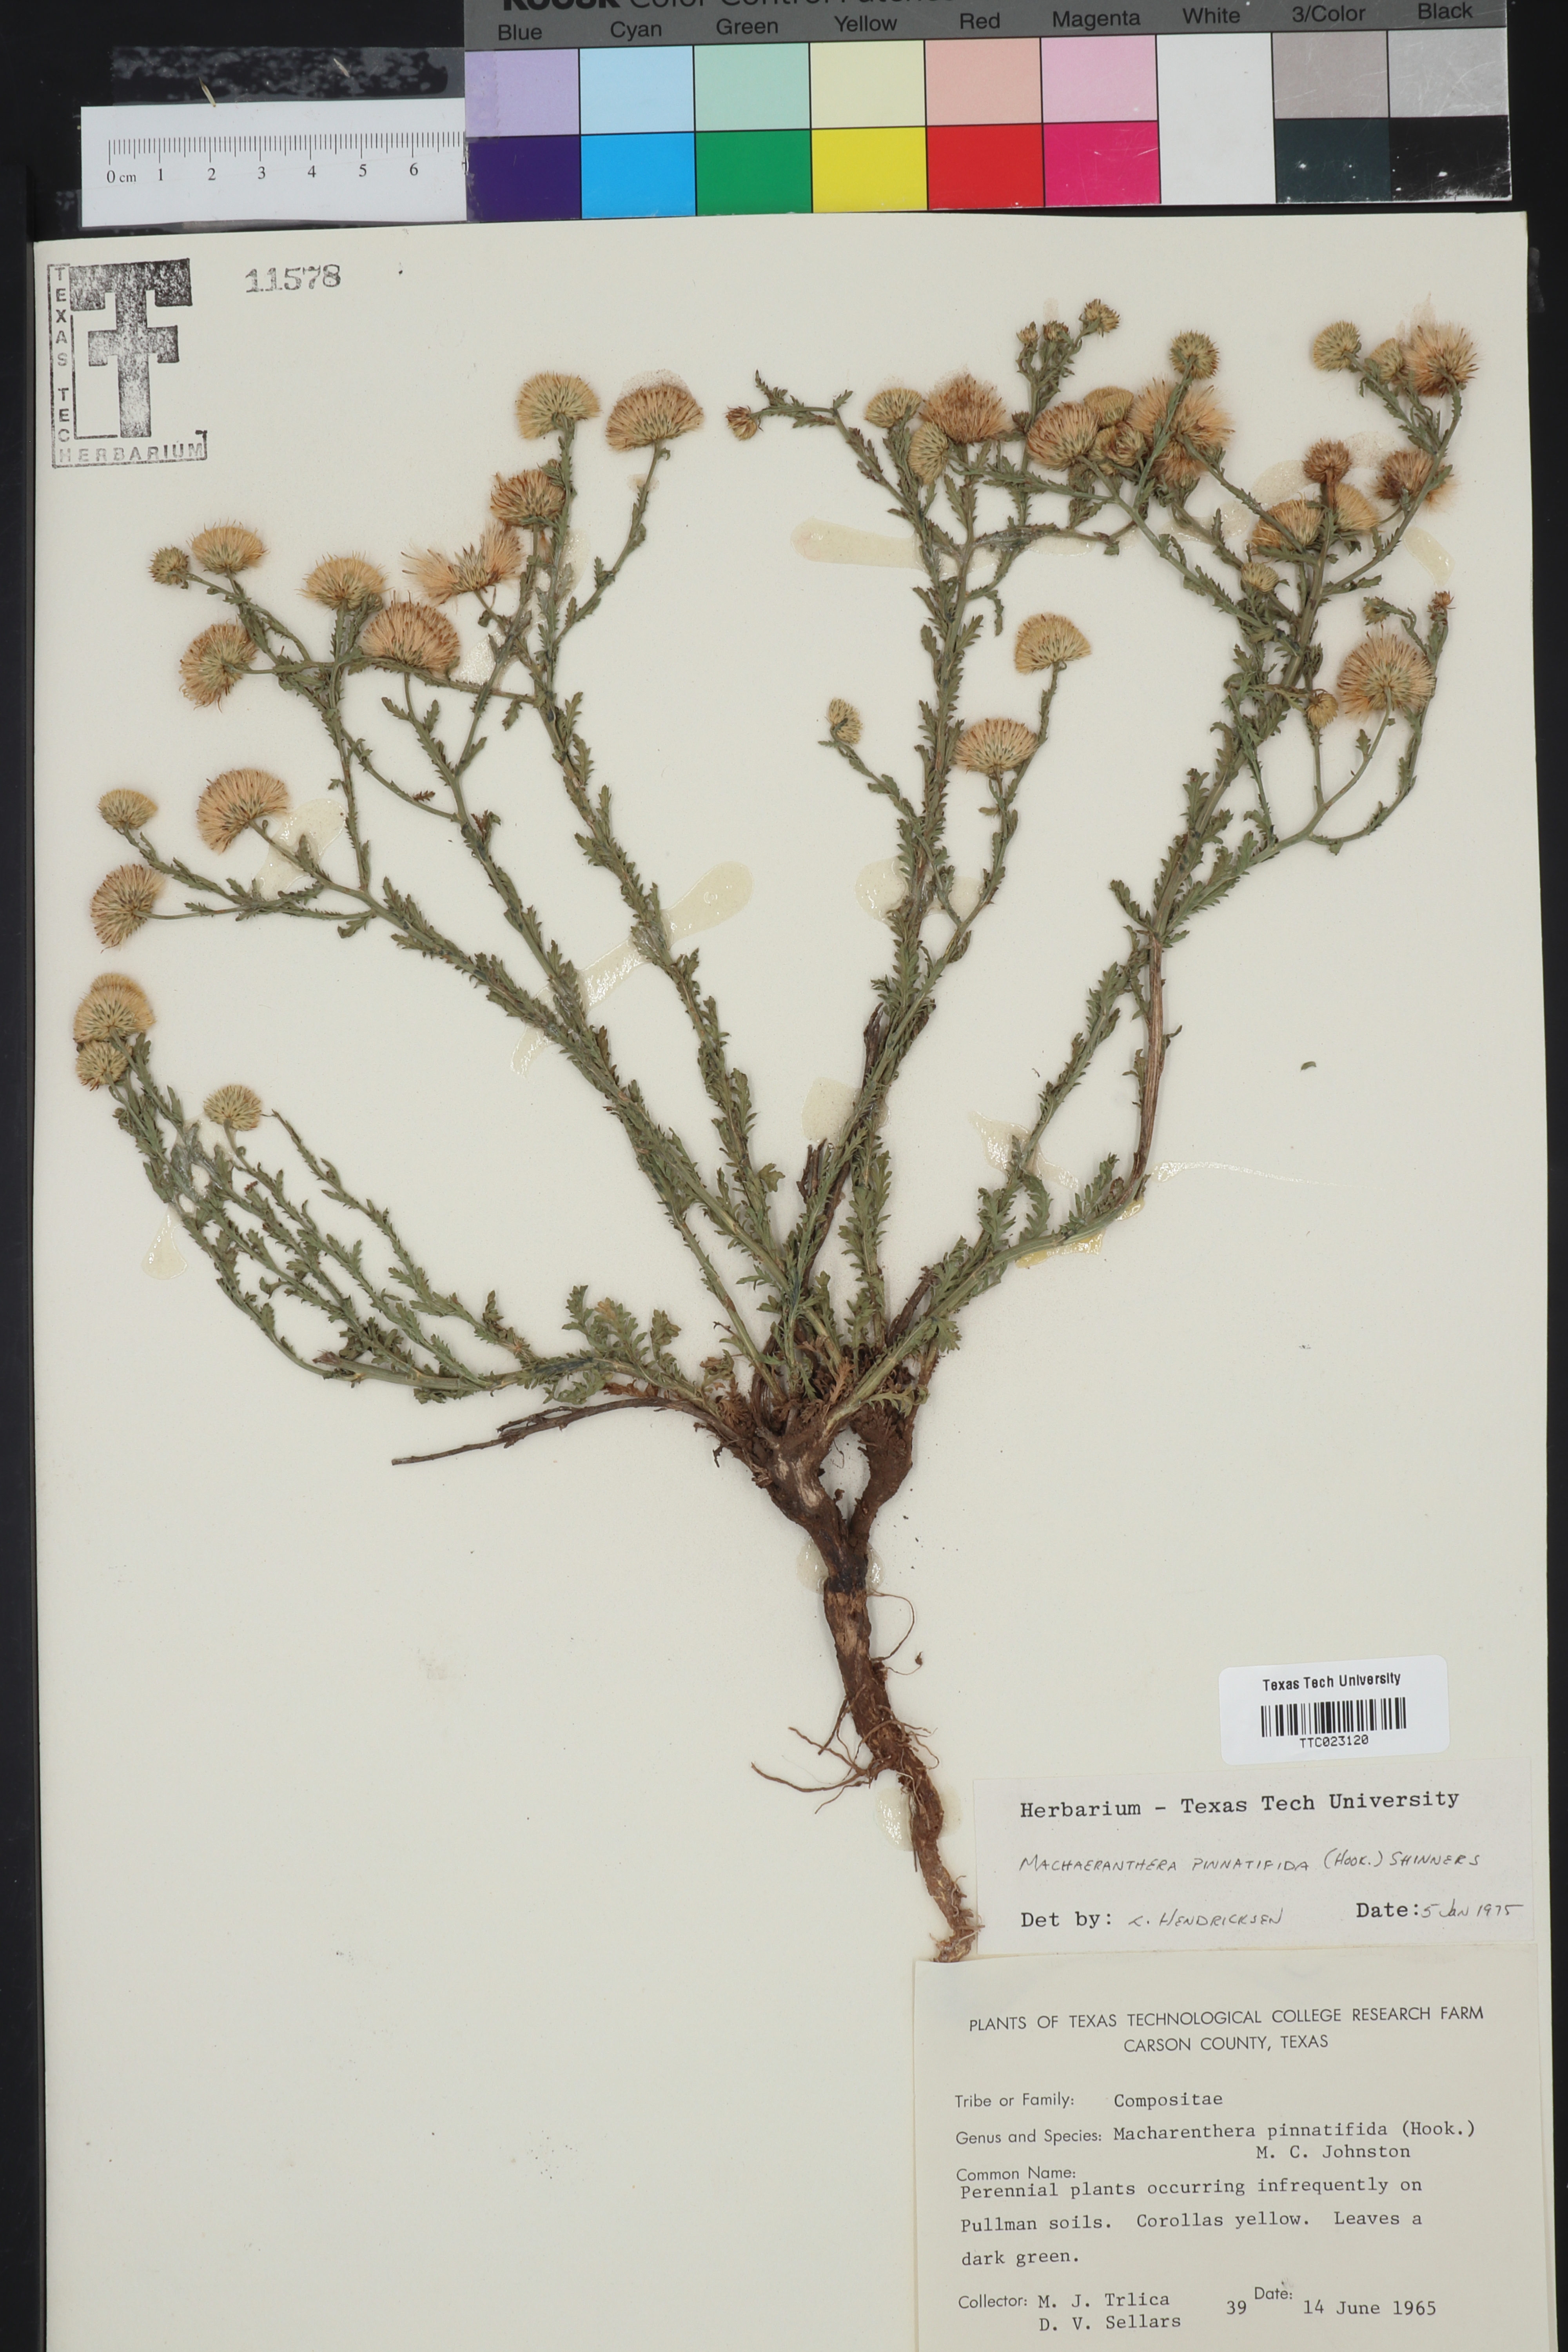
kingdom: Plantae
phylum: Tracheophyta
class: Magnoliopsida
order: Asterales
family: Asteraceae
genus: Xanthisma
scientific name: Xanthisma spinulosum
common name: Spiny goldenweed
